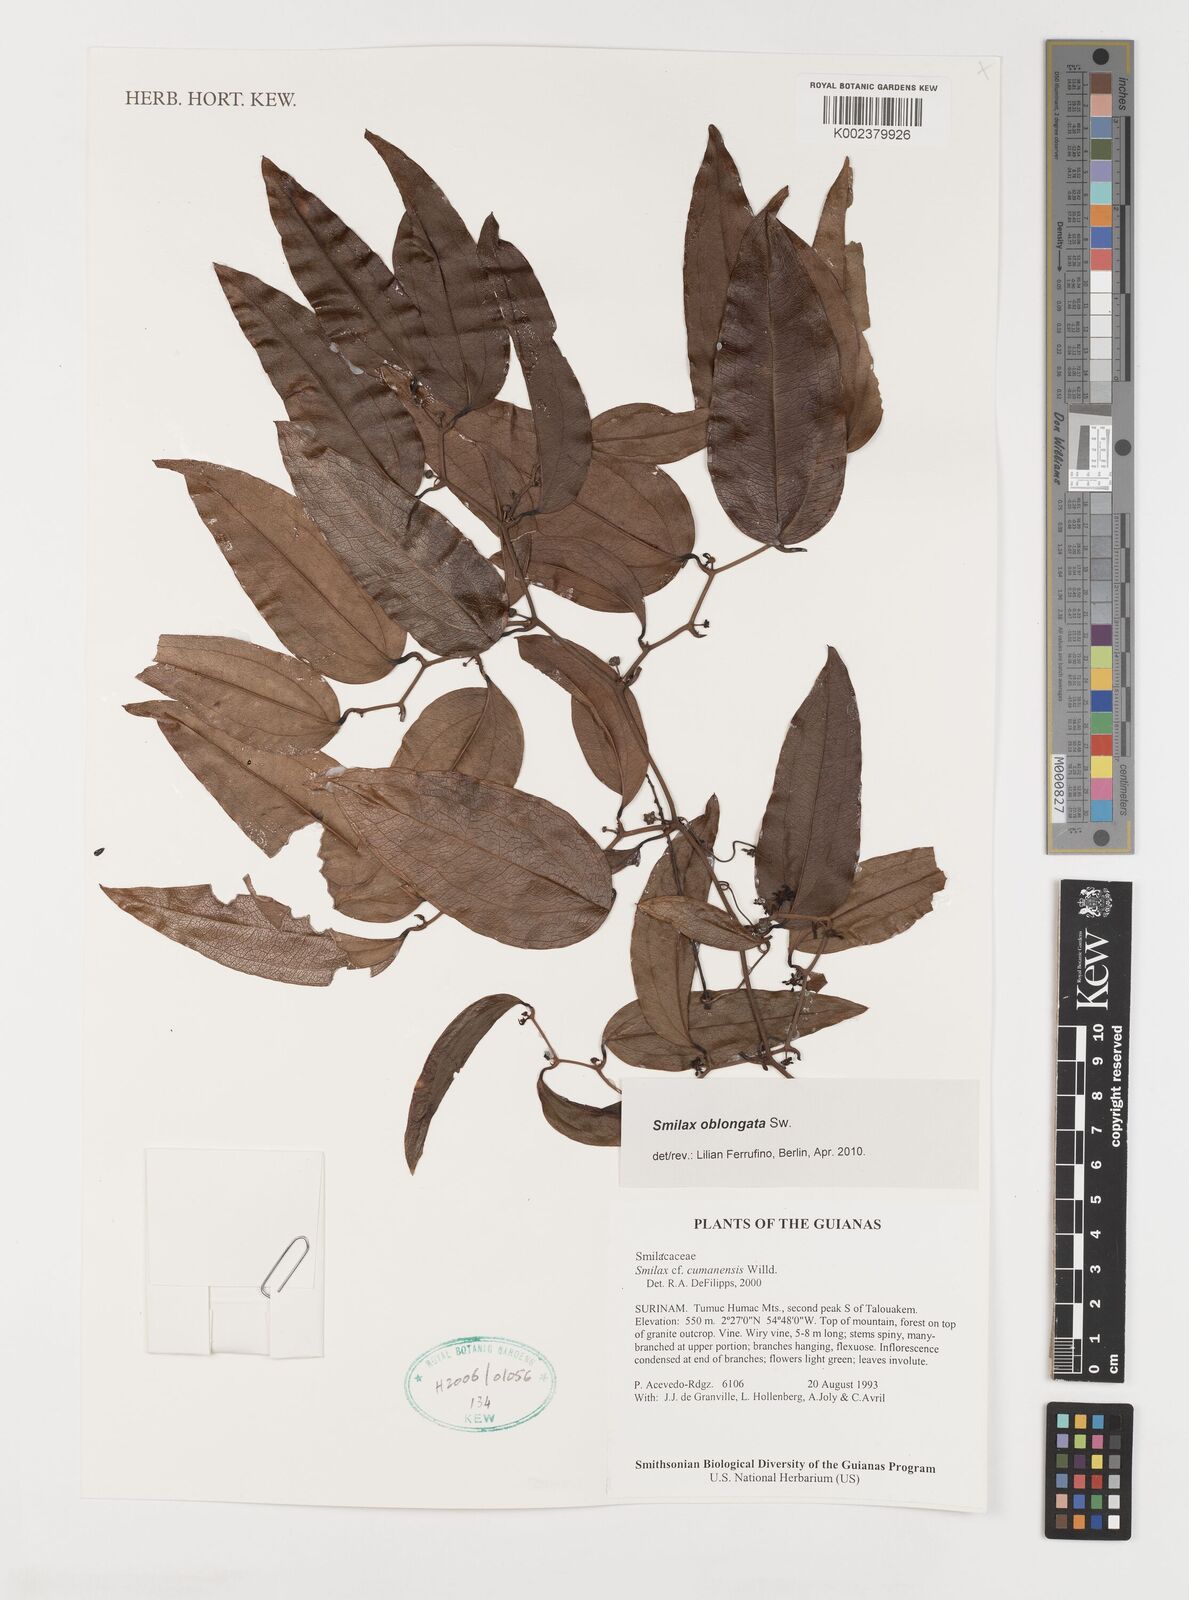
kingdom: Plantae
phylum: Tracheophyta
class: Liliopsida
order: Liliales
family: Smilacaceae
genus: Smilax
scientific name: Smilax oblongata
